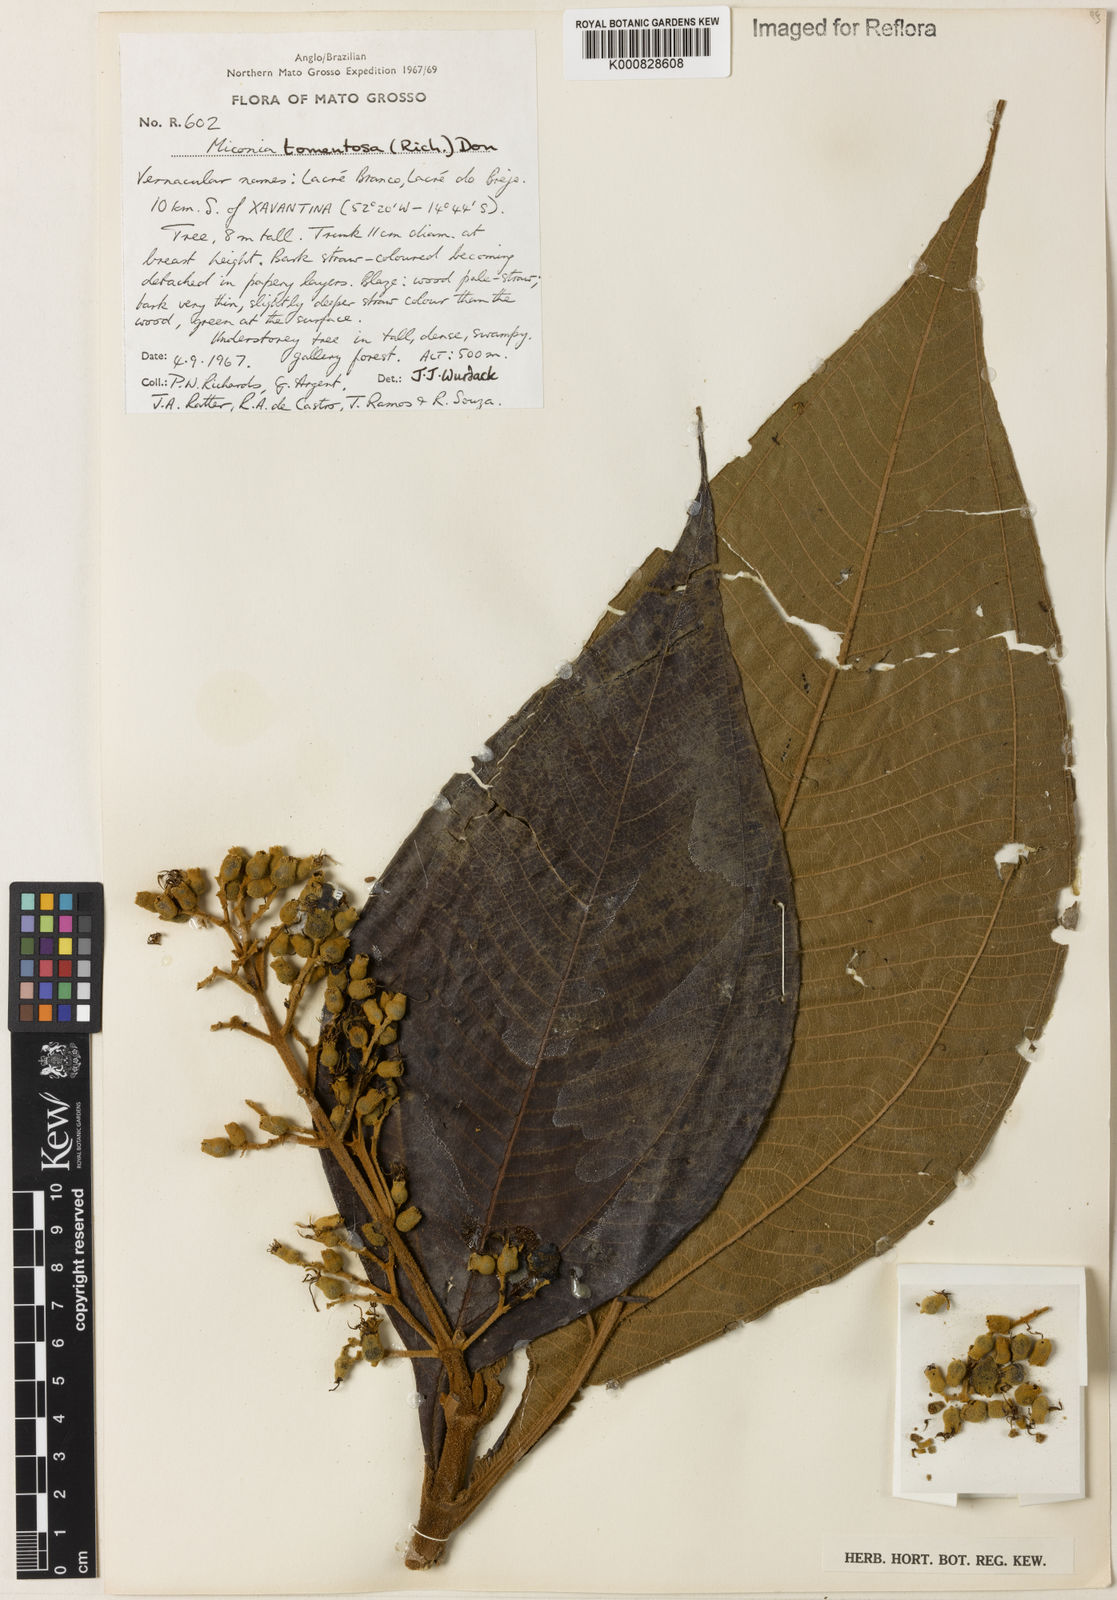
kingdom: Plantae
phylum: Tracheophyta
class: Magnoliopsida
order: Myrtales
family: Melastomataceae
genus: Miconia
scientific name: Miconia tomentosa
